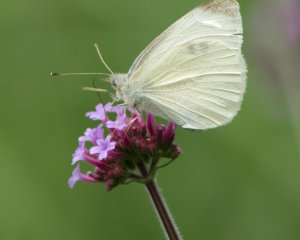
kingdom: Animalia
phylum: Arthropoda
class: Insecta
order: Lepidoptera
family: Pieridae
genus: Pieris
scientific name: Pieris rapae
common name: Cabbage White
